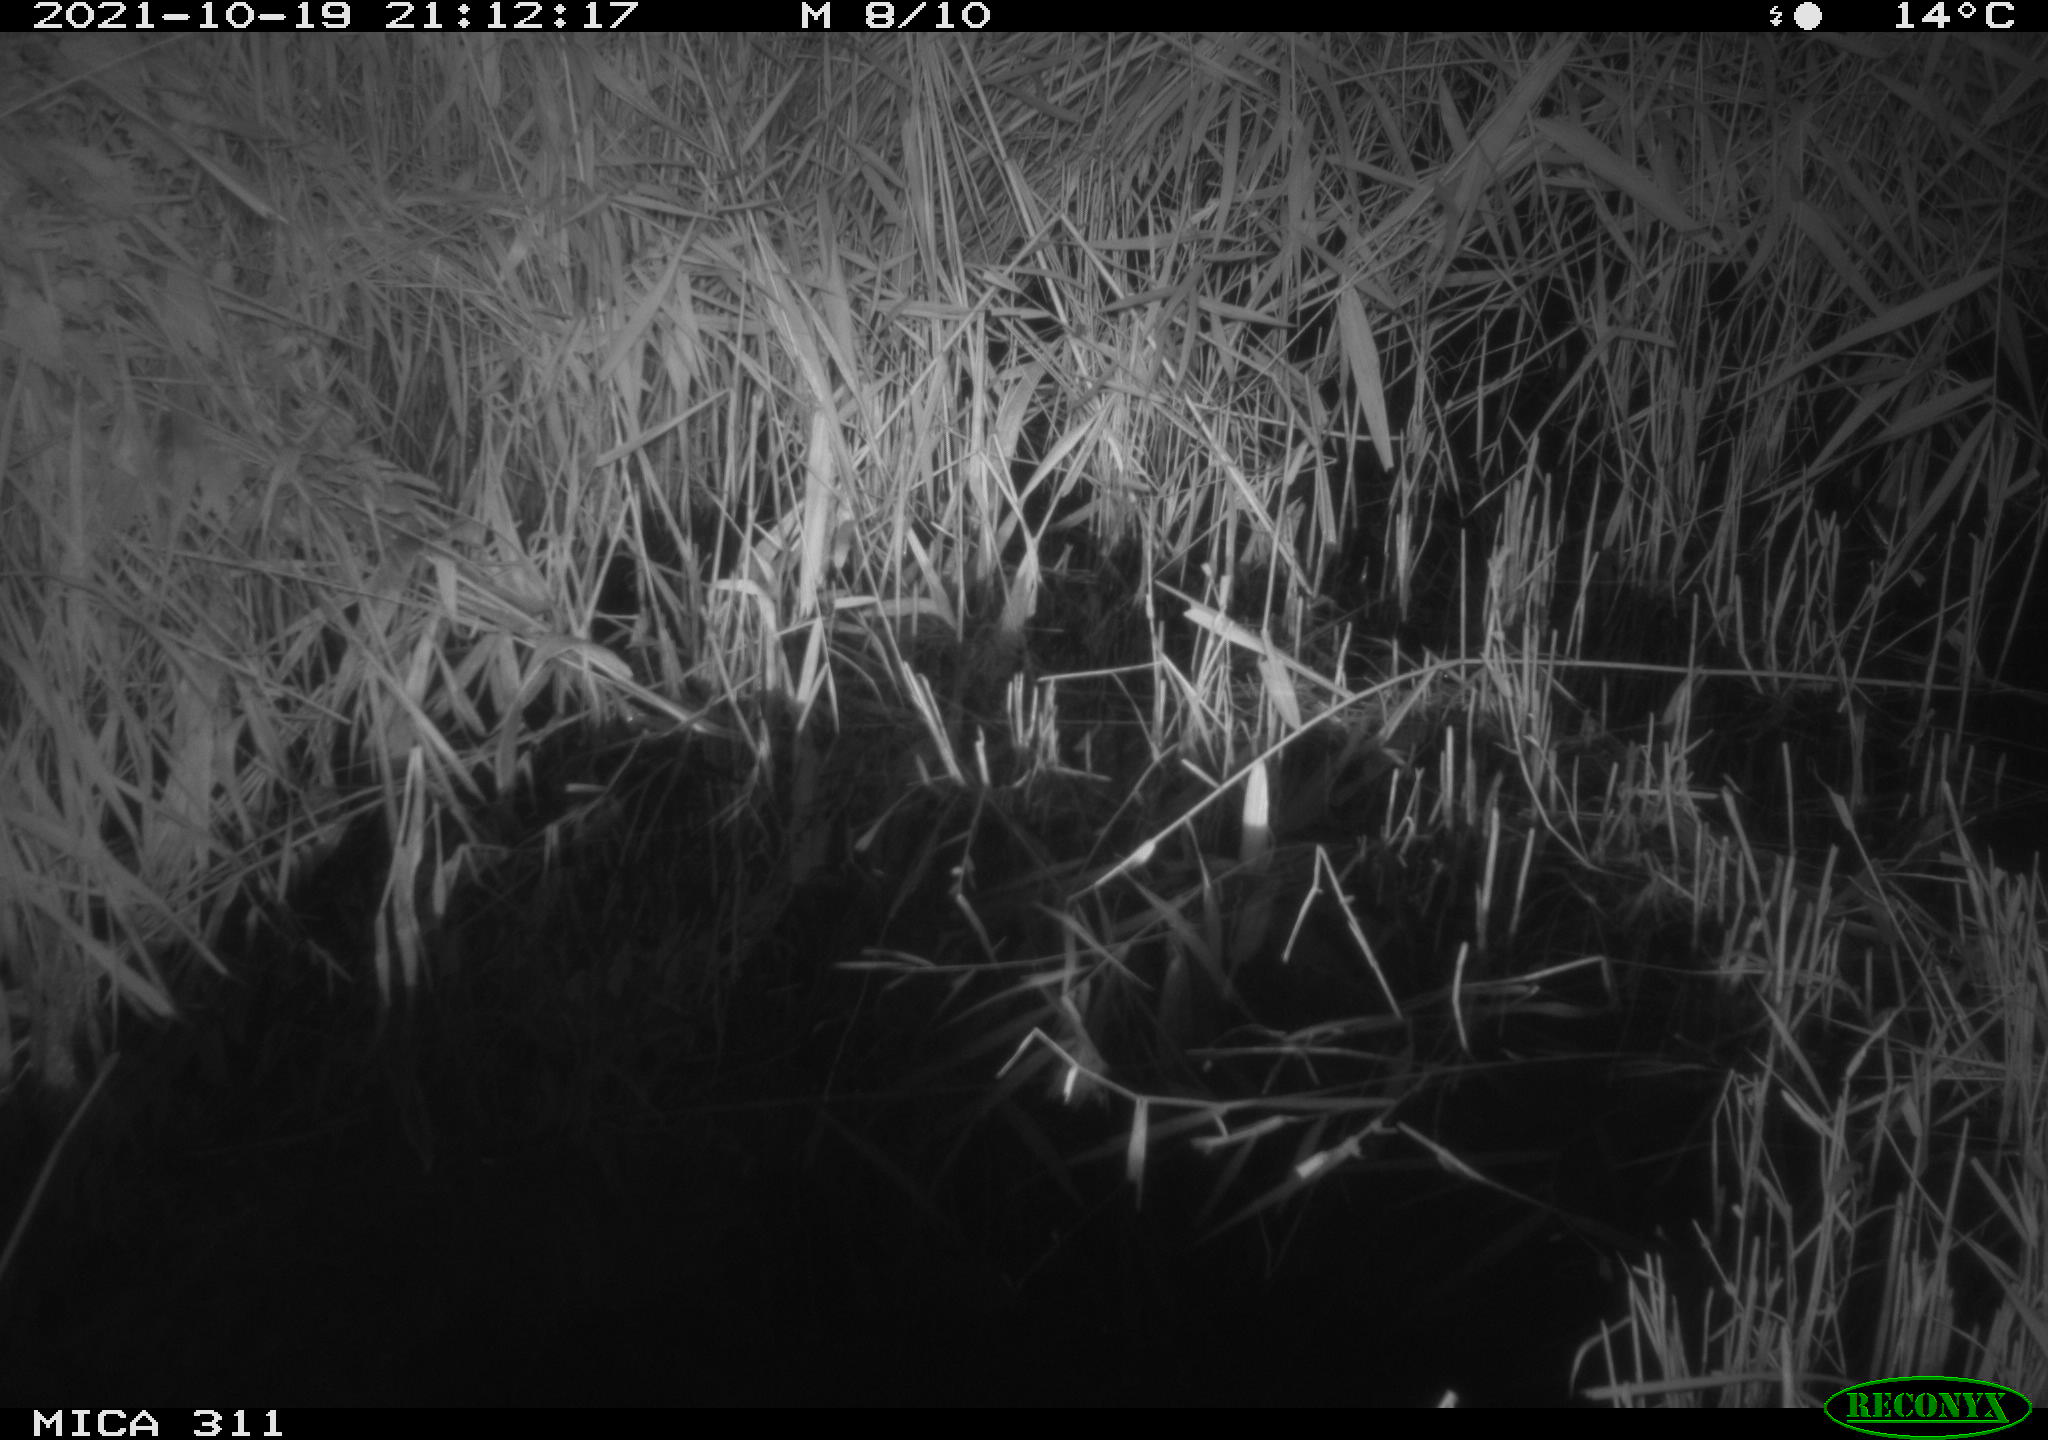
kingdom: Animalia
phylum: Chordata
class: Mammalia
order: Rodentia
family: Muridae
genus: Rattus
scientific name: Rattus norvegicus
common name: Brown rat
